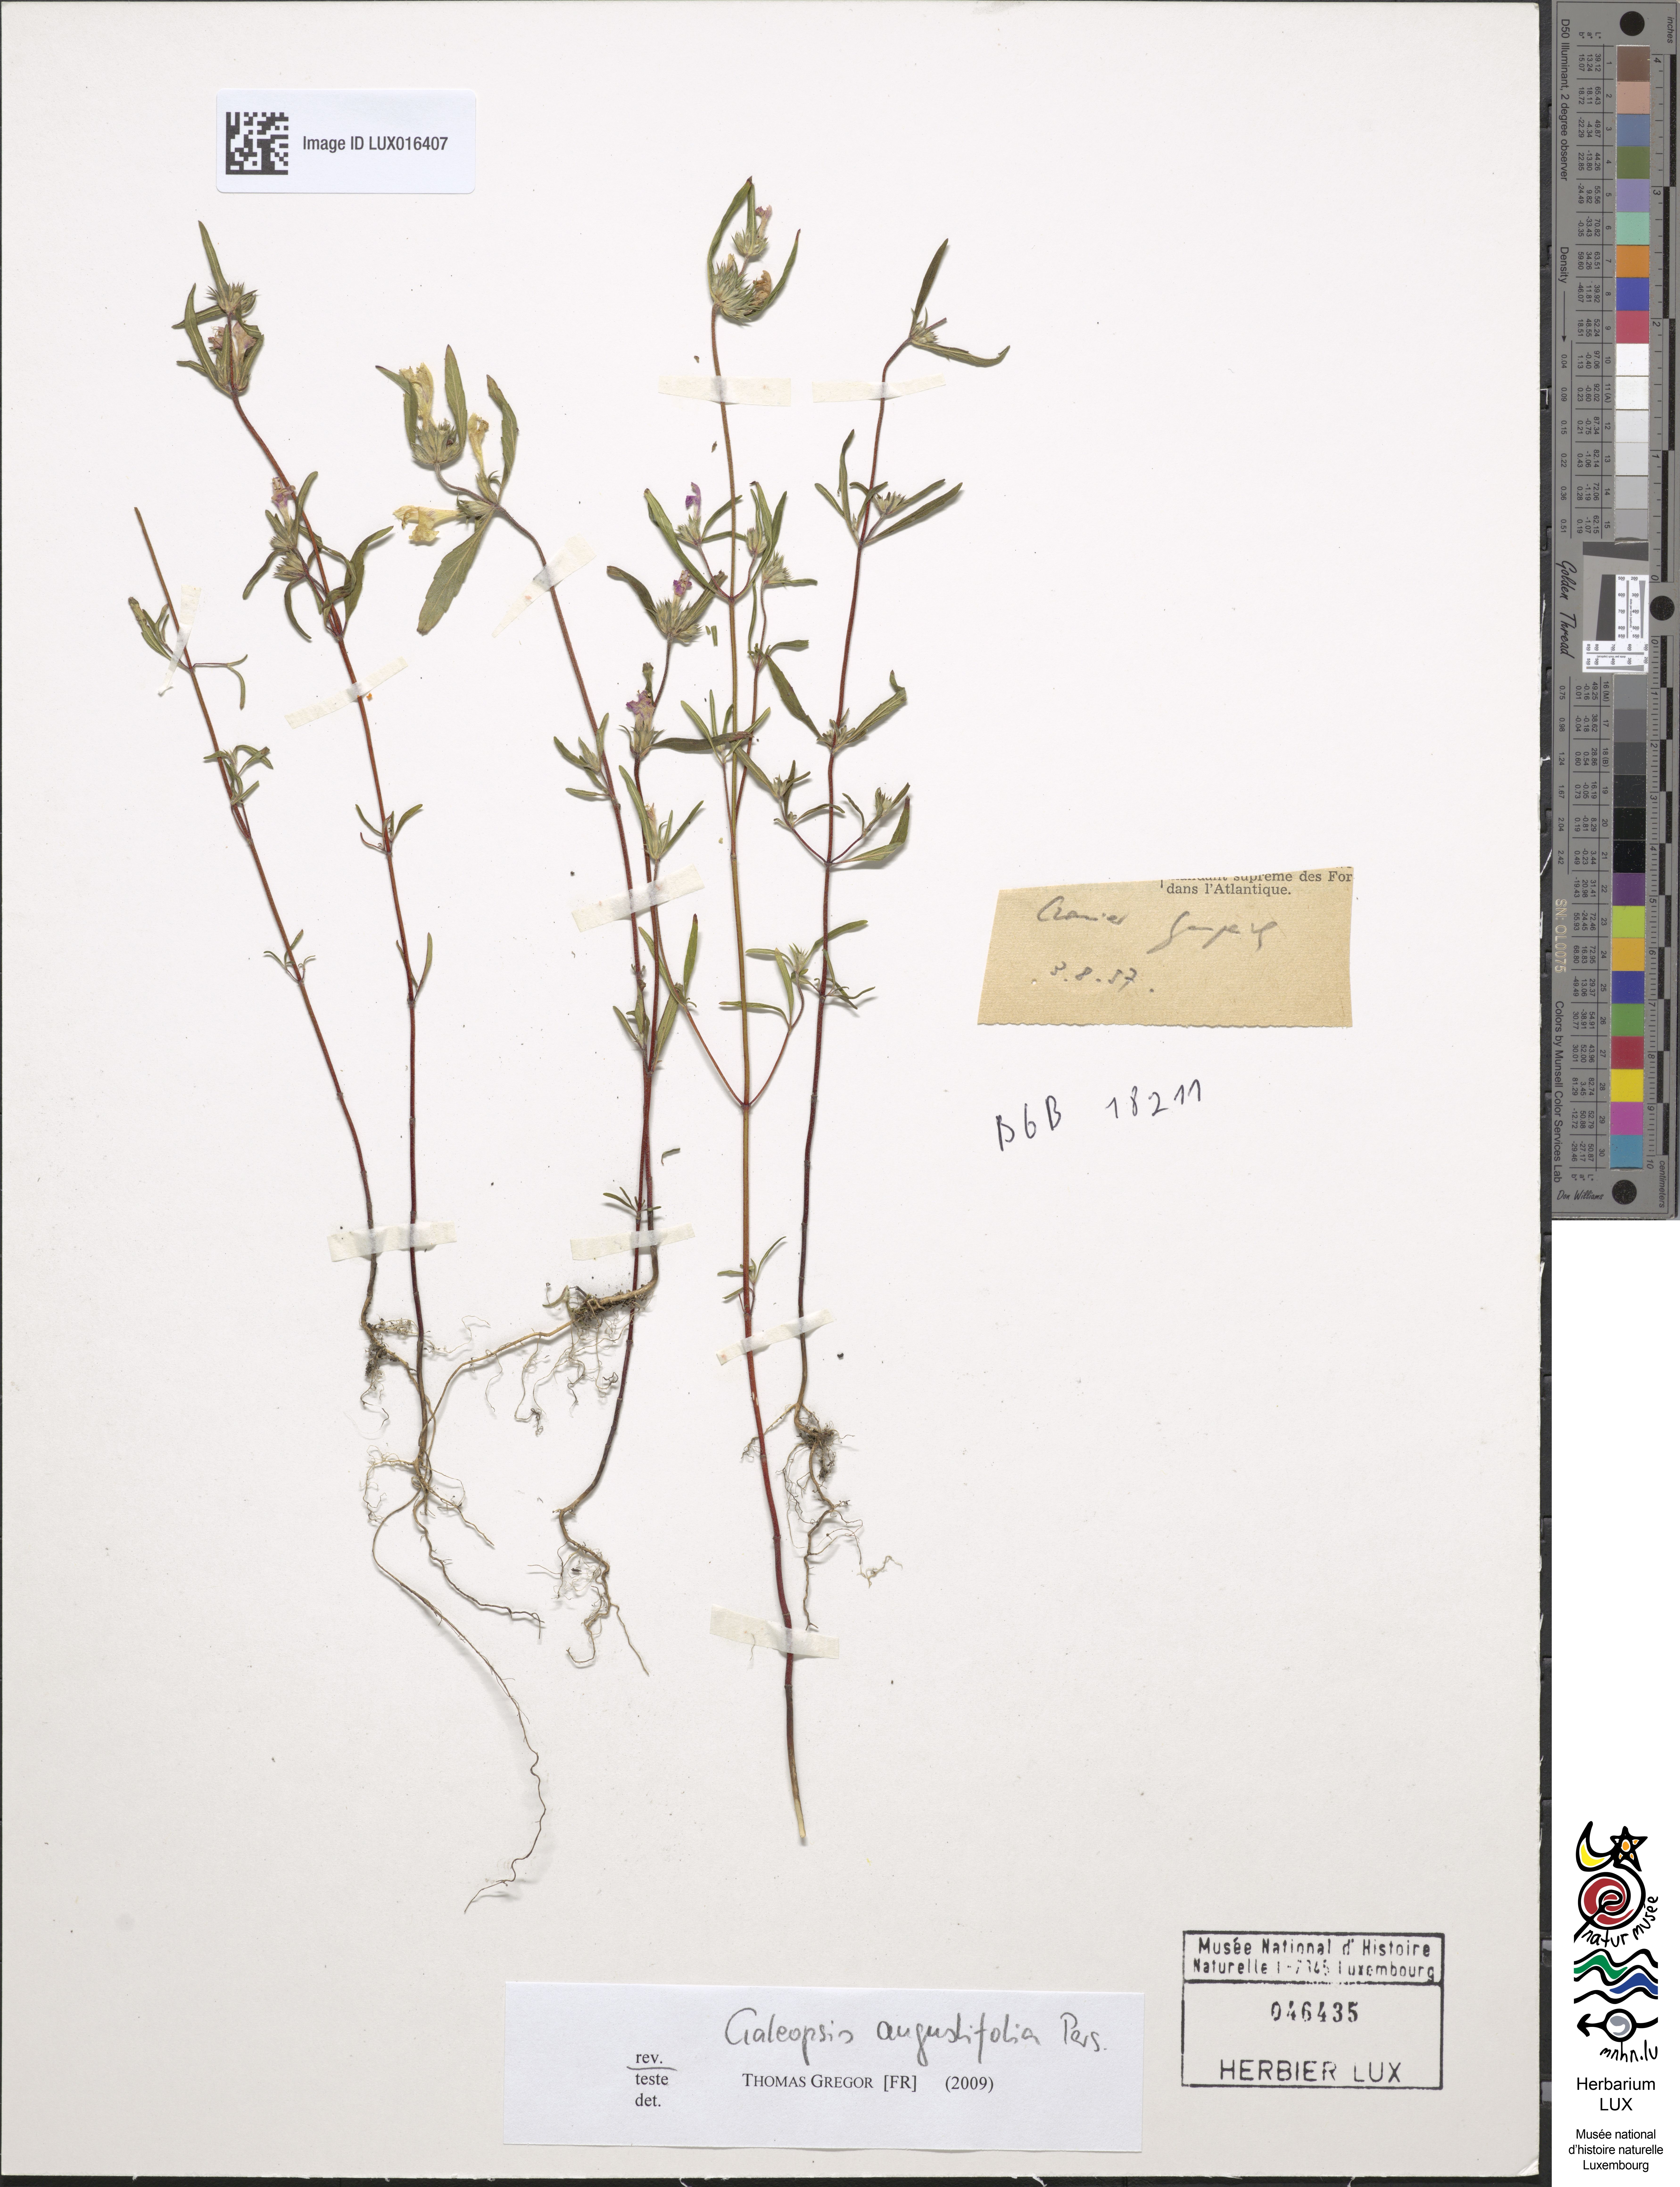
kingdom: Plantae
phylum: Tracheophyta
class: Magnoliopsida
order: Lamiales
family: Lamiaceae
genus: Galeopsis
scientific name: Galeopsis angustifolia
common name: Red hemp-nettle
